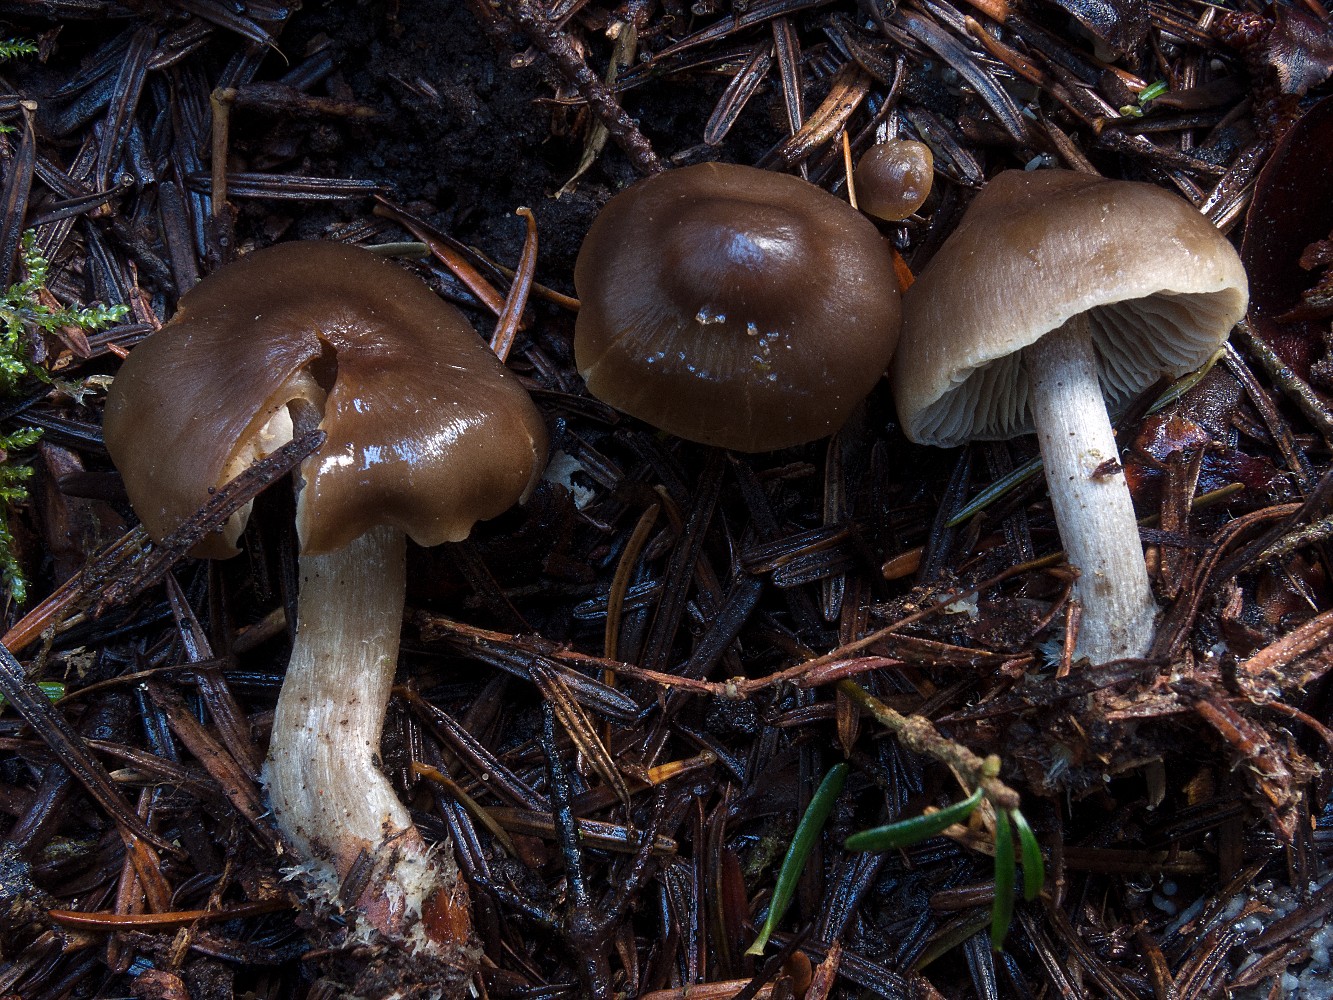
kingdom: Fungi
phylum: Basidiomycota
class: Agaricomycetes
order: Agaricales
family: Lyophyllaceae
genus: Myochromella
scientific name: Myochromella boudieri
